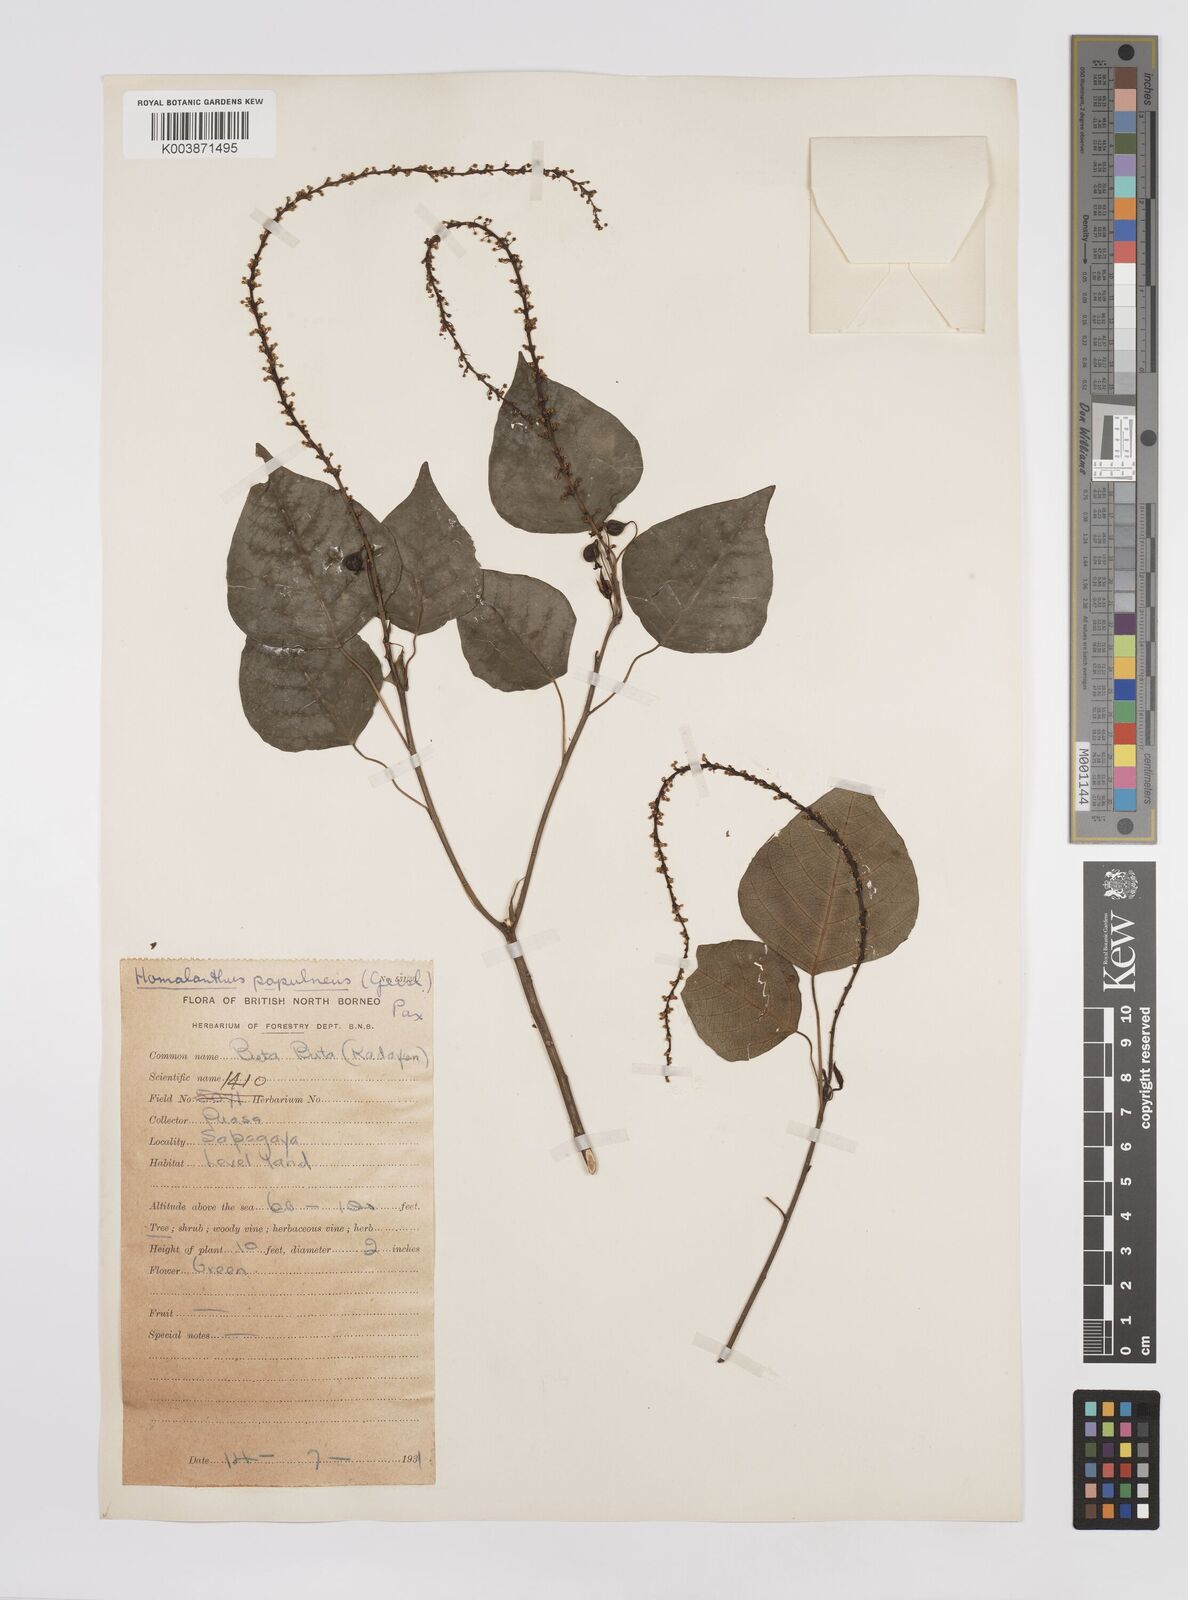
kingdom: Plantae
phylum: Tracheophyta
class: Magnoliopsida
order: Malpighiales
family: Euphorbiaceae
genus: Homalanthus
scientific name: Homalanthus populneus
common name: Spurge
